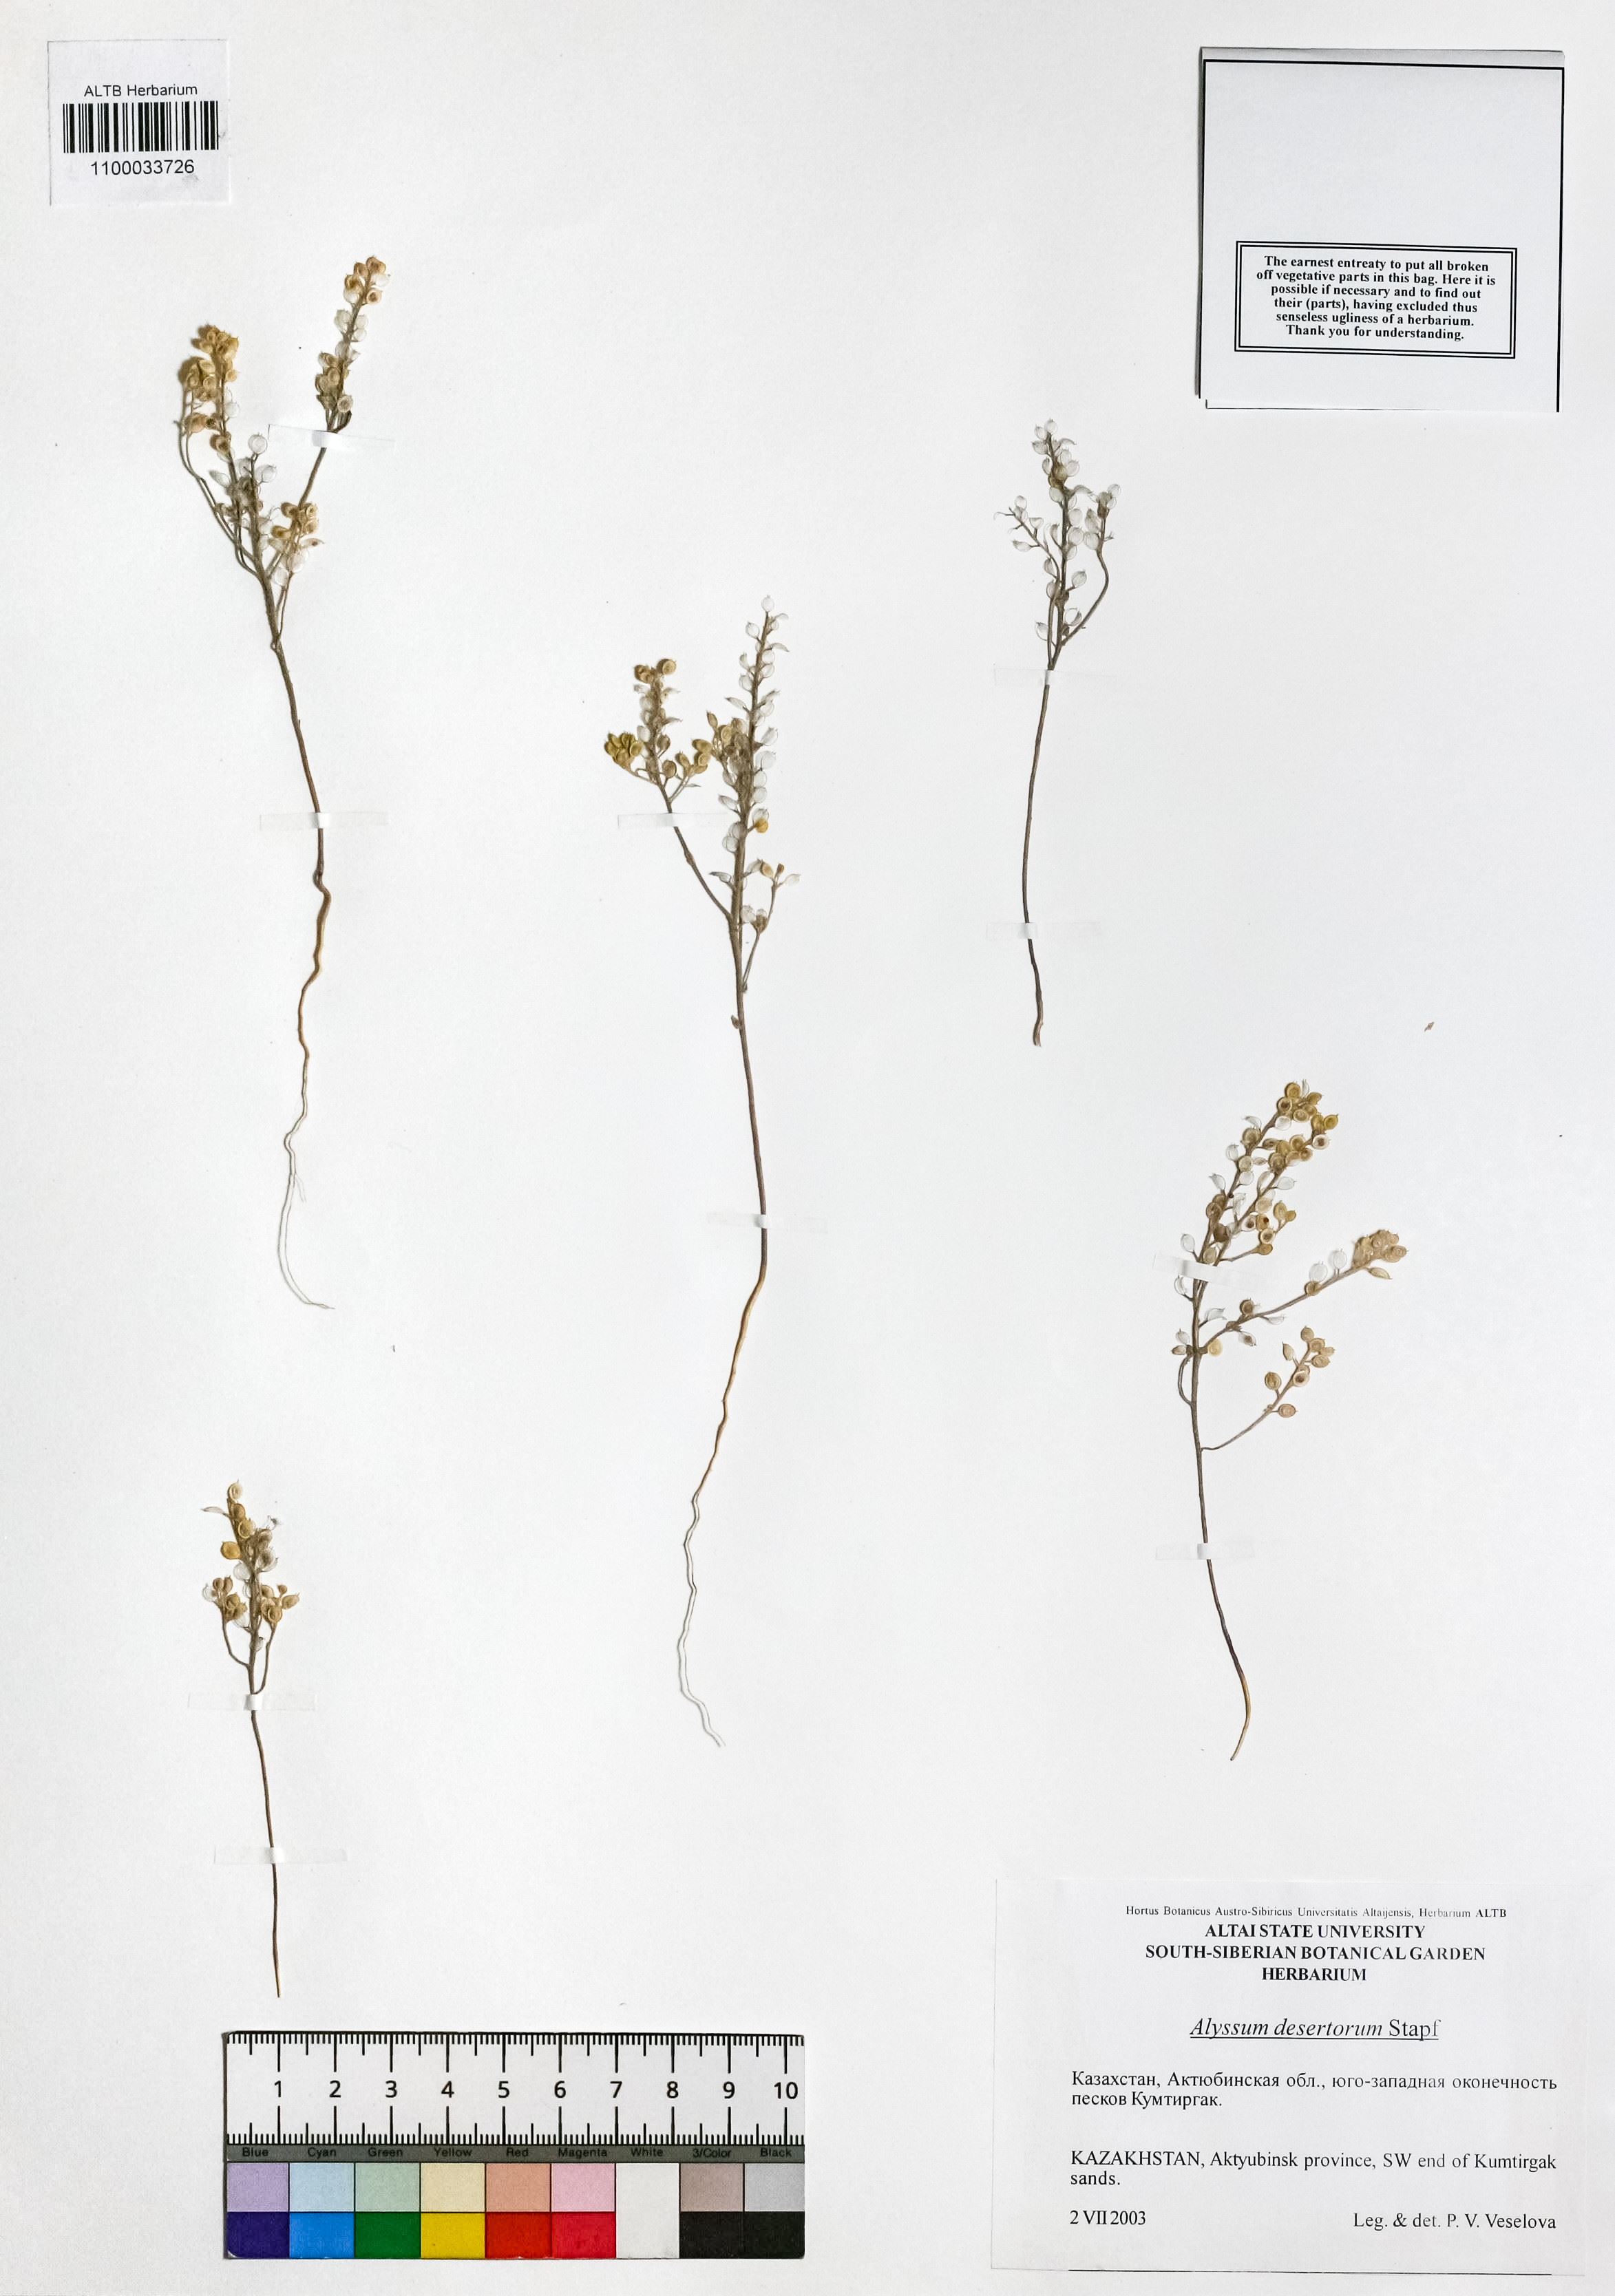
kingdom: Plantae
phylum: Tracheophyta
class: Magnoliopsida
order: Brassicales
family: Brassicaceae
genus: Alyssum
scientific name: Alyssum turkestanicum
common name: Desert alyssum
